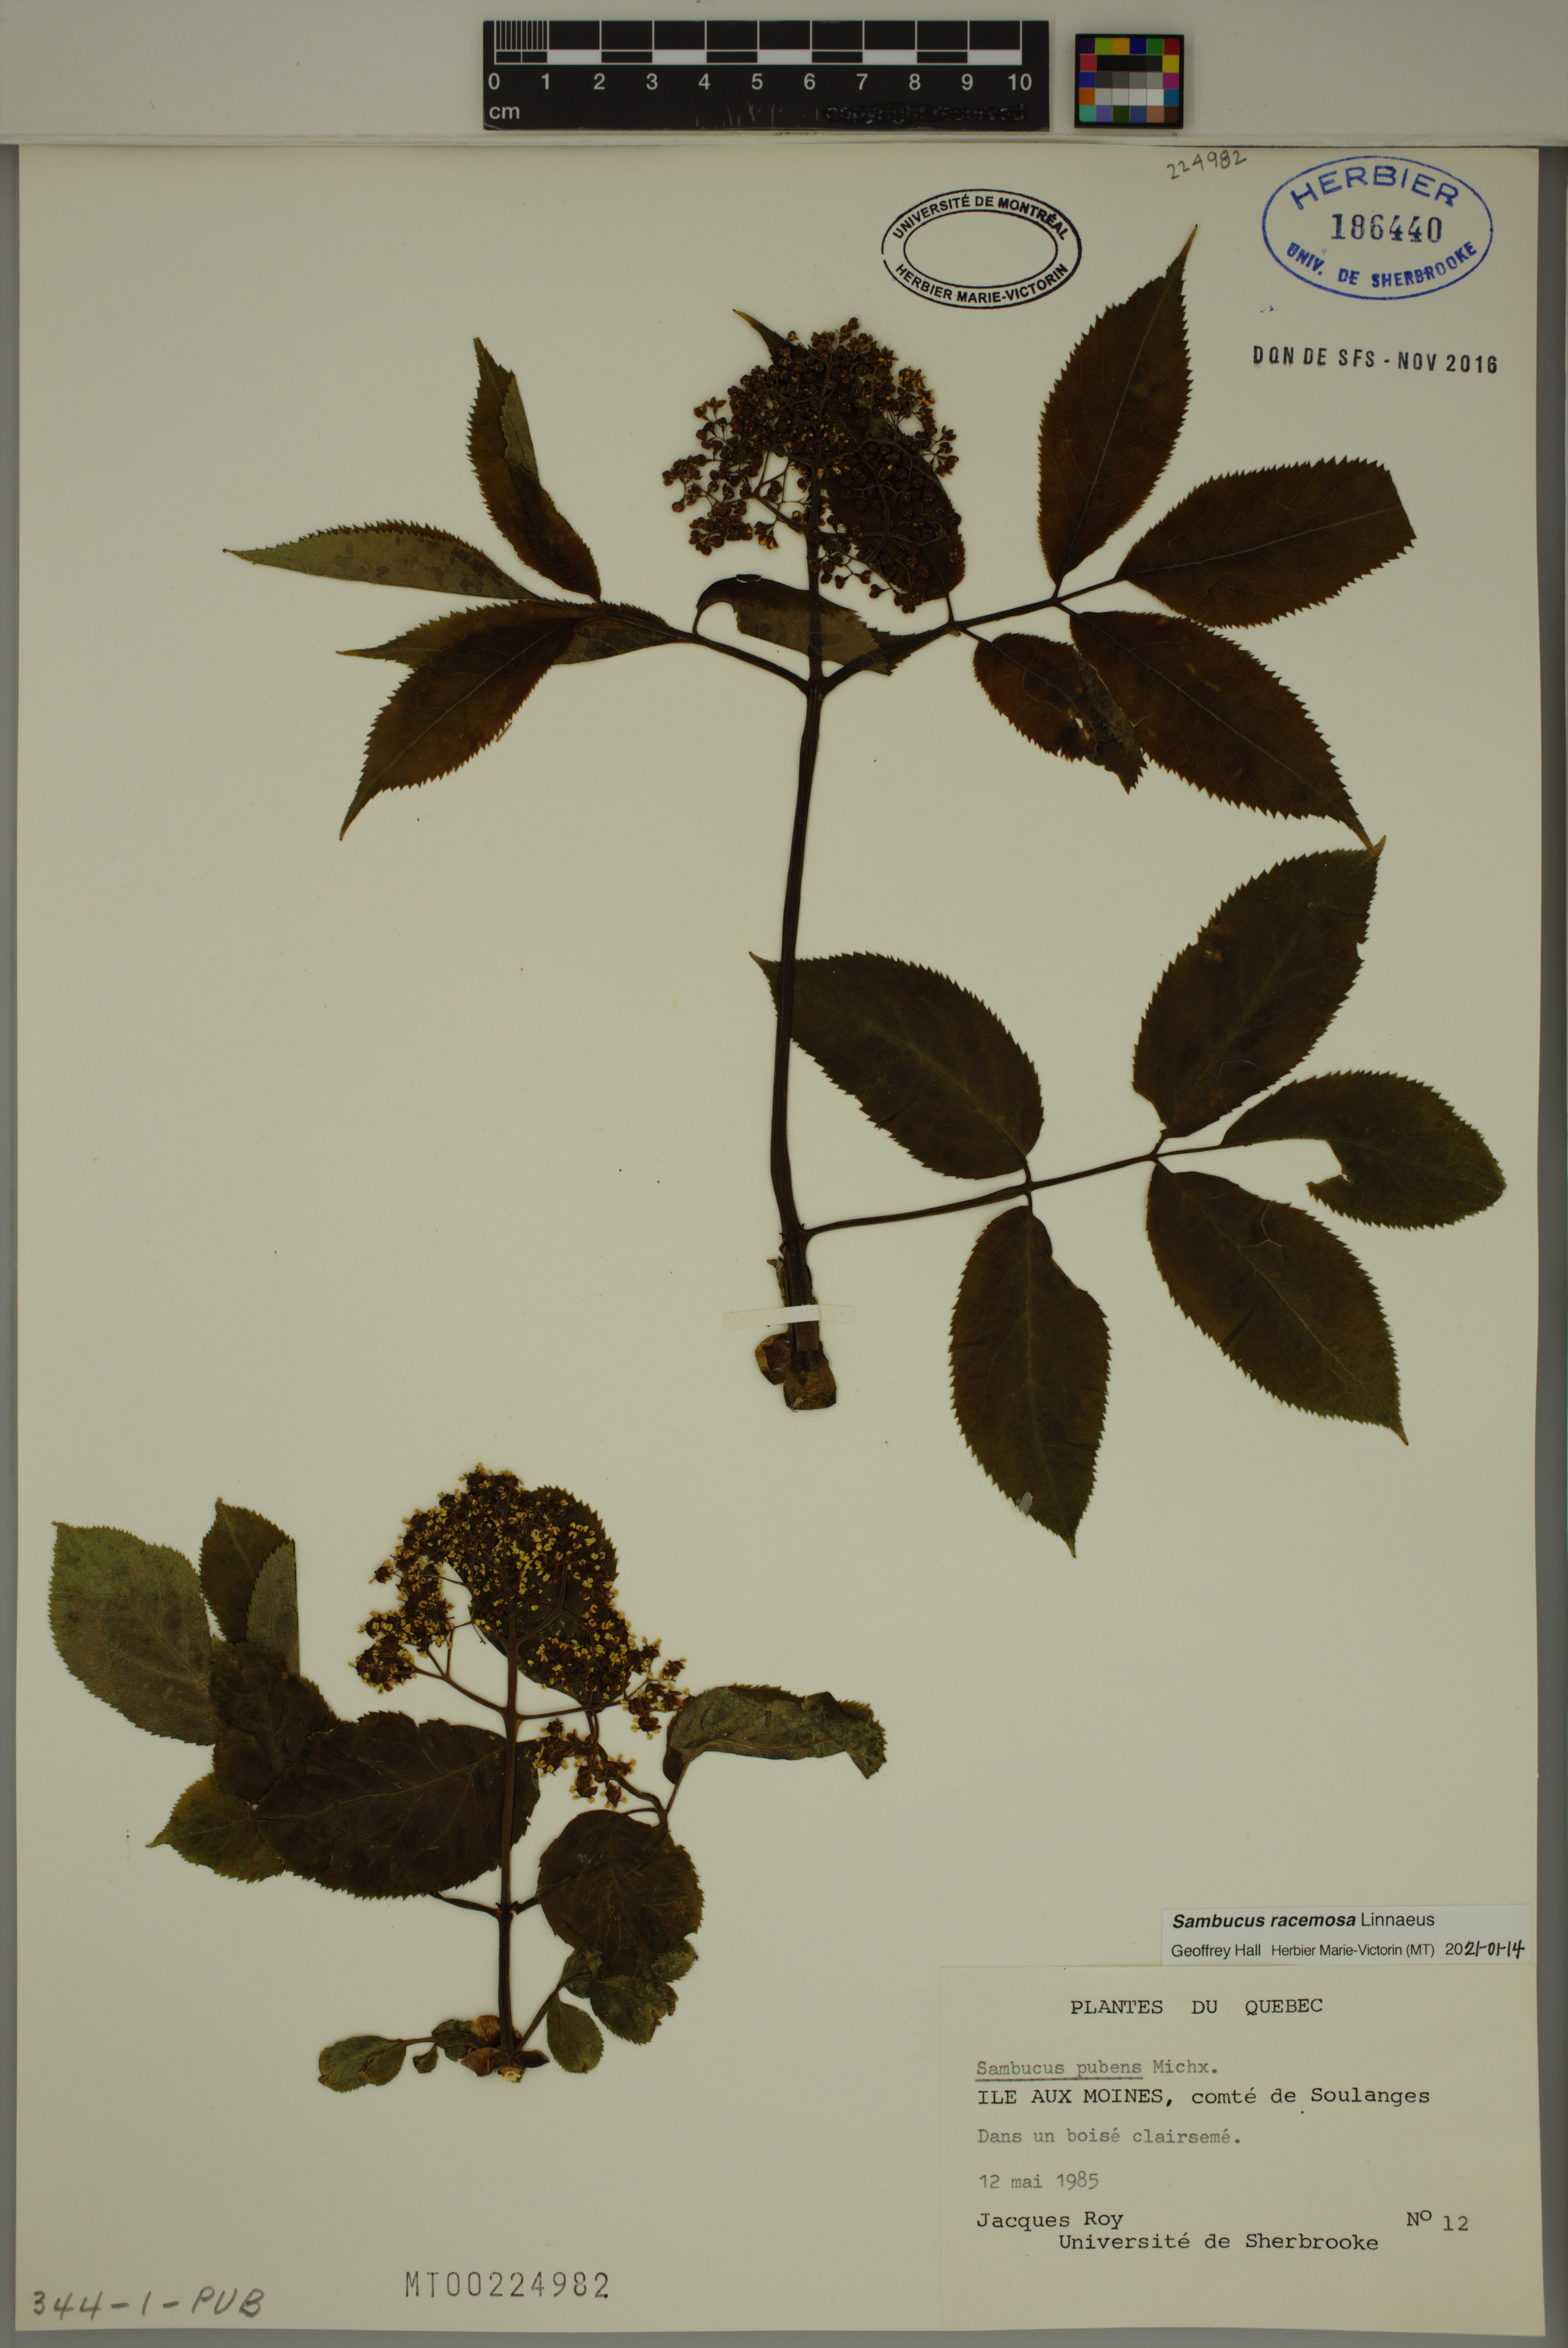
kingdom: Plantae
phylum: Tracheophyta
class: Magnoliopsida
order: Dipsacales
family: Viburnaceae
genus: Sambucus
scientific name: Sambucus racemosa
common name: Red-berried elder
